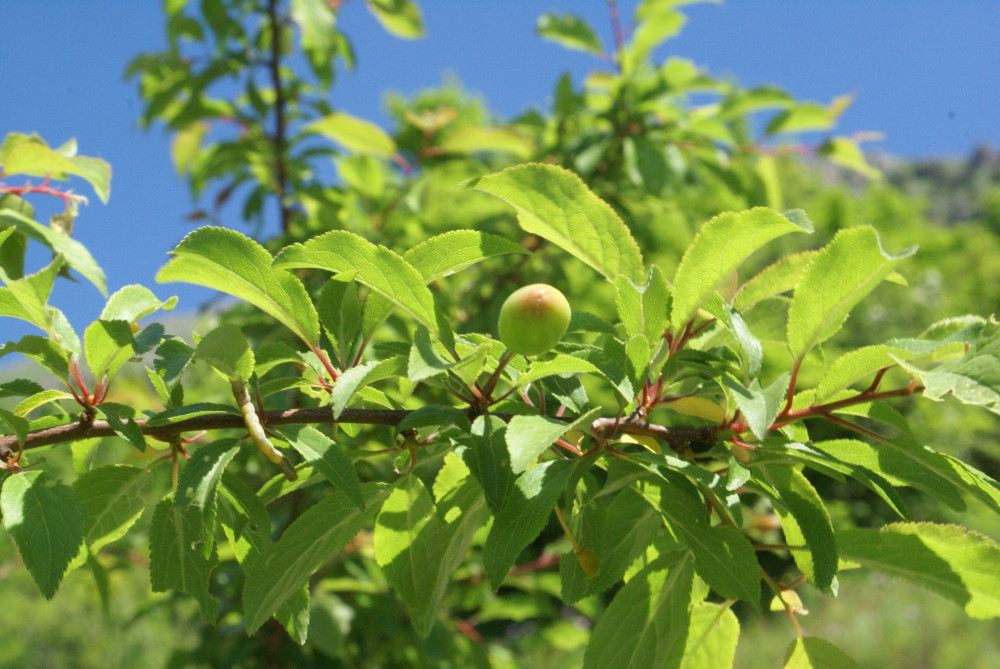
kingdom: Plantae
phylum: Tracheophyta
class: Magnoliopsida
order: Rosales
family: Rosaceae
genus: Prunus
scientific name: Prunus cerasifera
